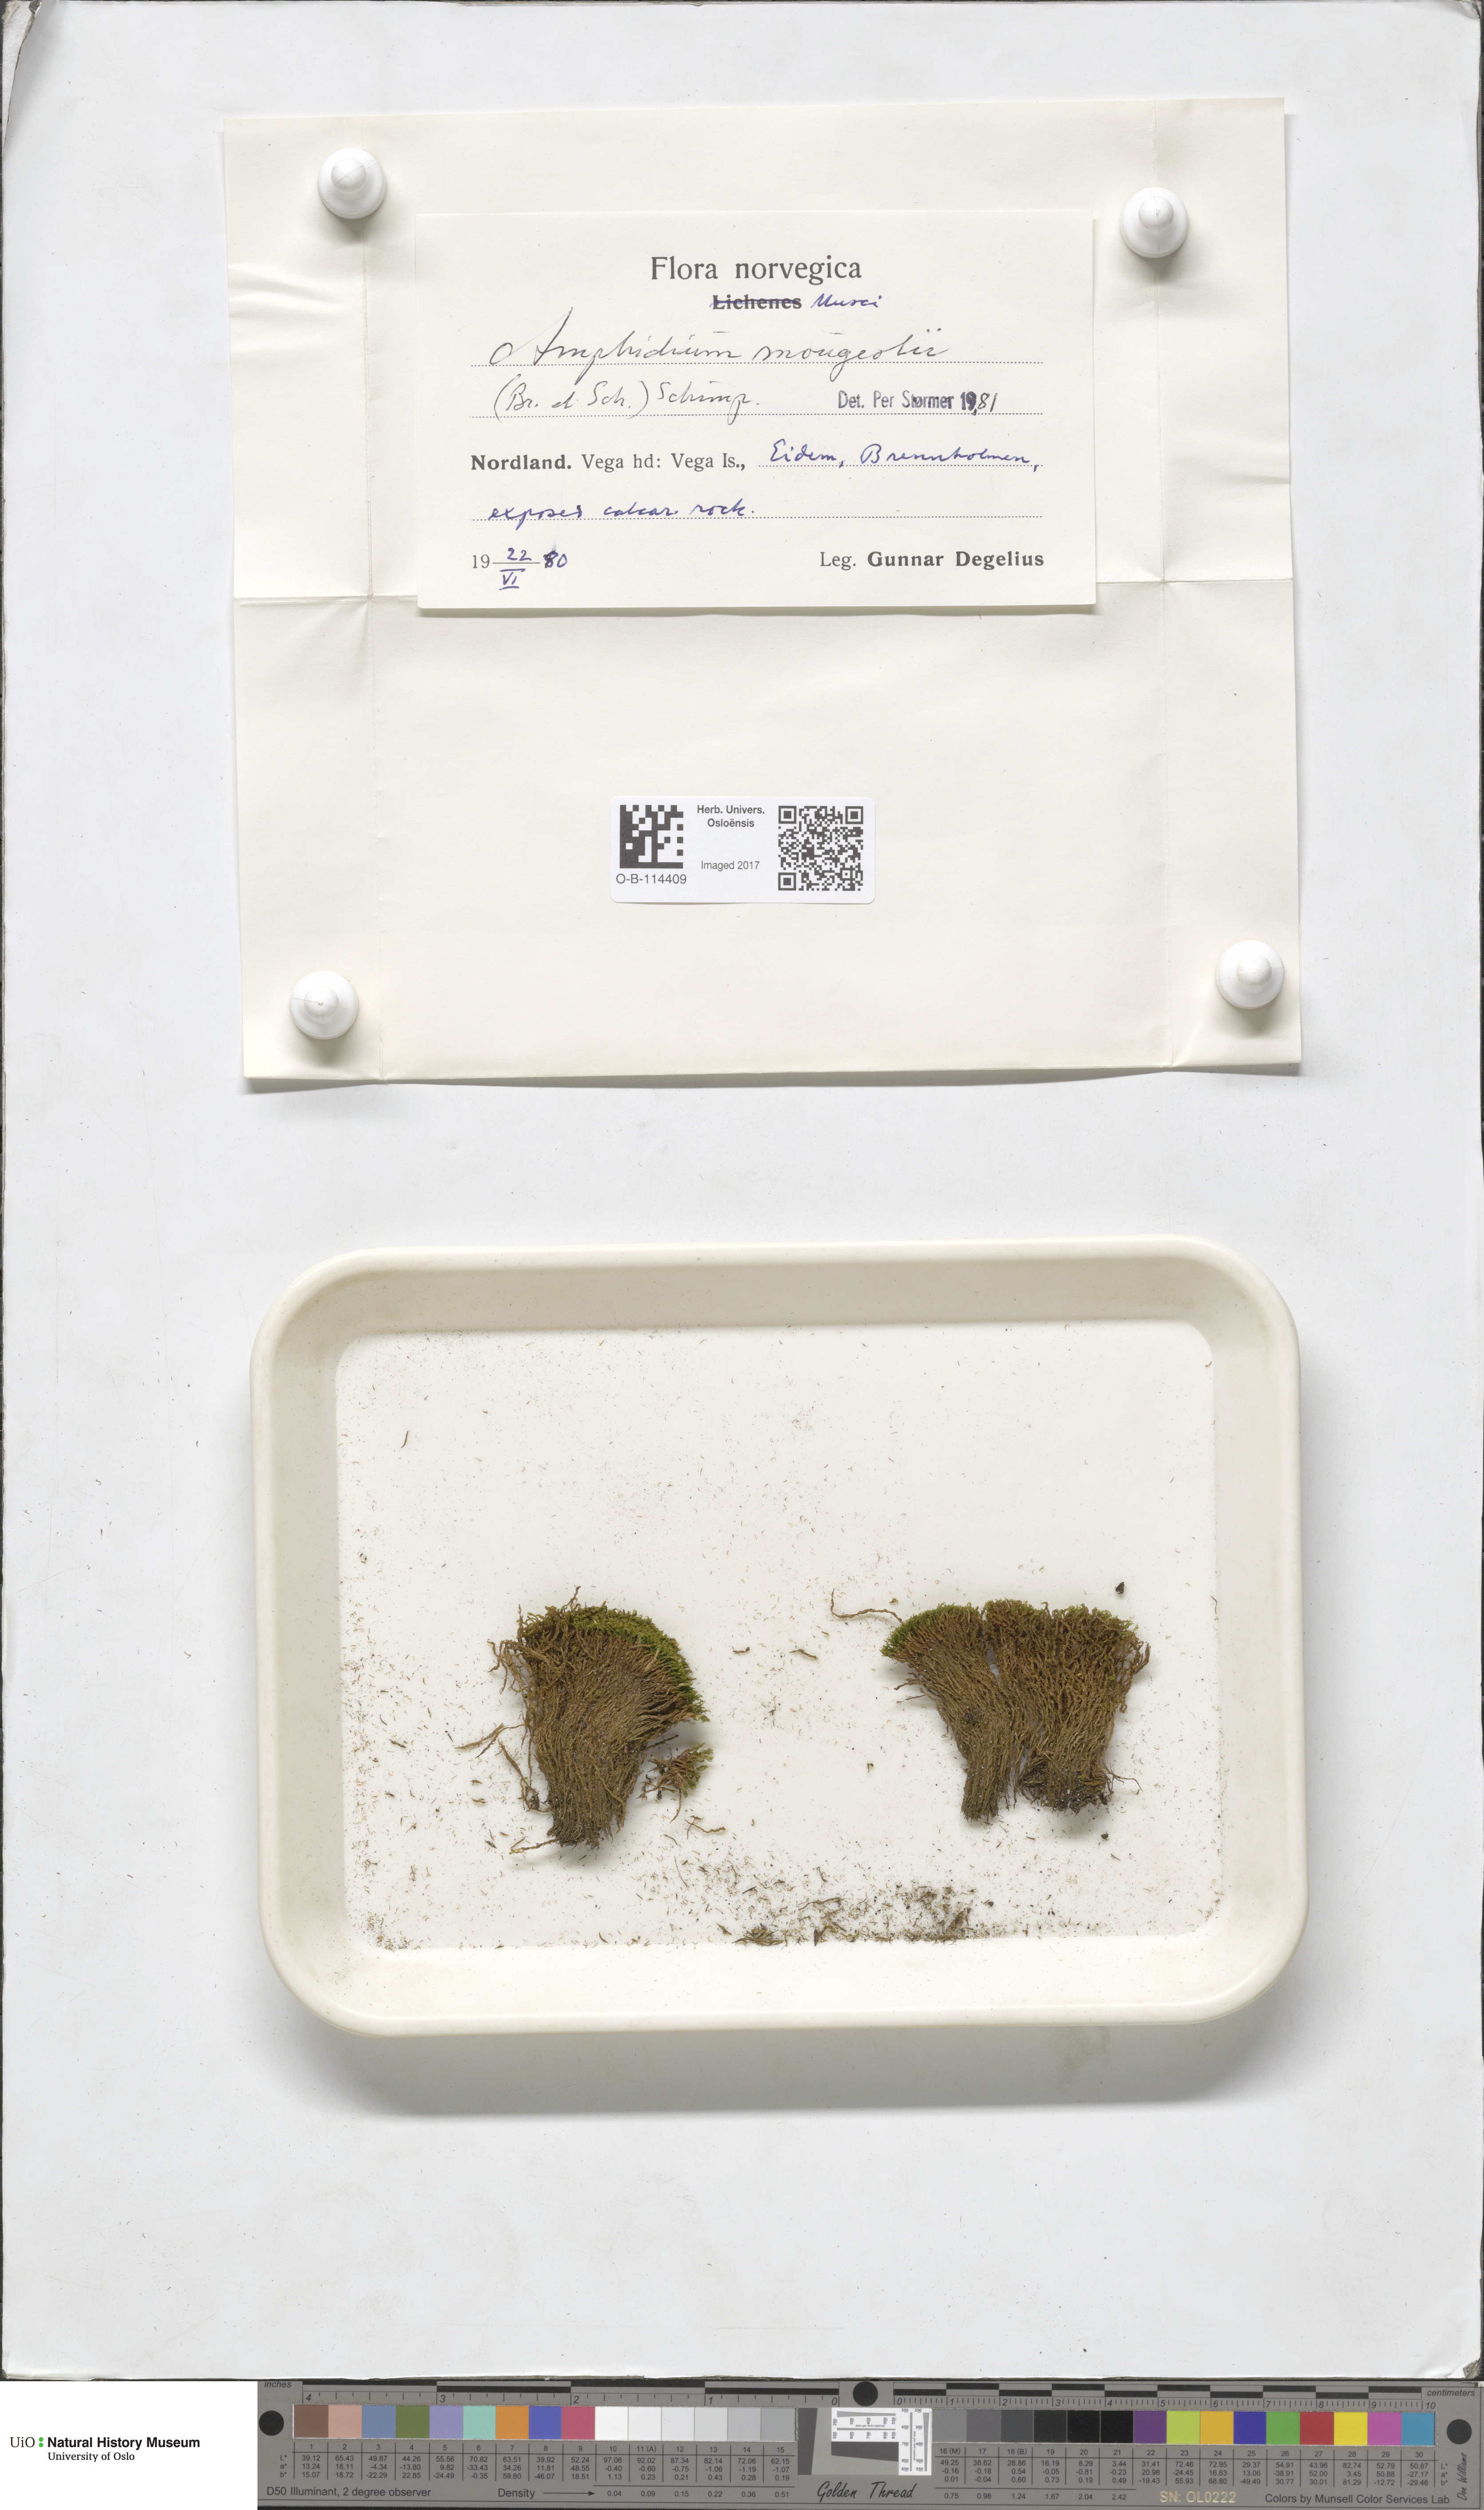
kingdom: Plantae
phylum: Bryophyta
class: Bryopsida
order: Dicranales
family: Amphidiaceae
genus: Amphidium
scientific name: Amphidium mougeotii
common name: Mougeot's yoke moss
